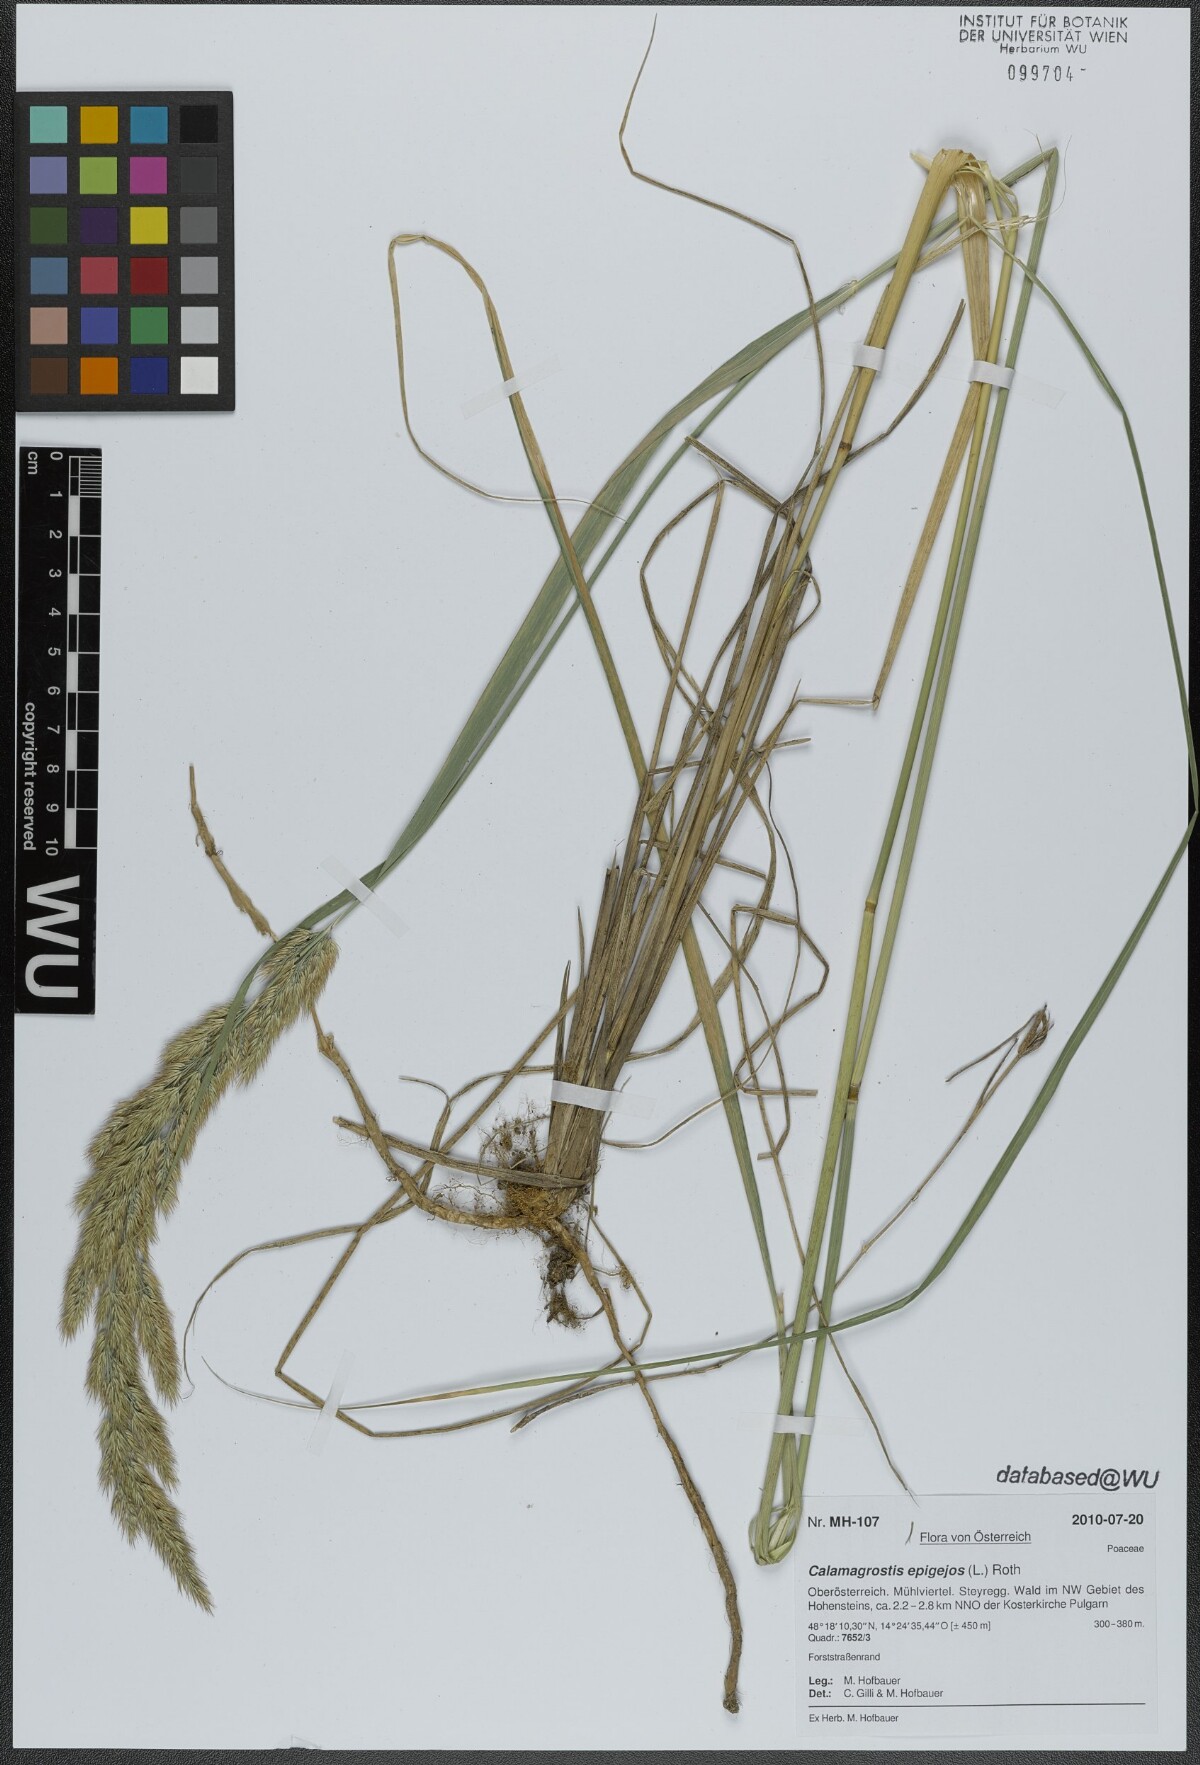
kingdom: Plantae
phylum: Tracheophyta
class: Liliopsida
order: Poales
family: Poaceae
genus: Calamagrostis
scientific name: Calamagrostis epigejos
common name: Wood small-reed
